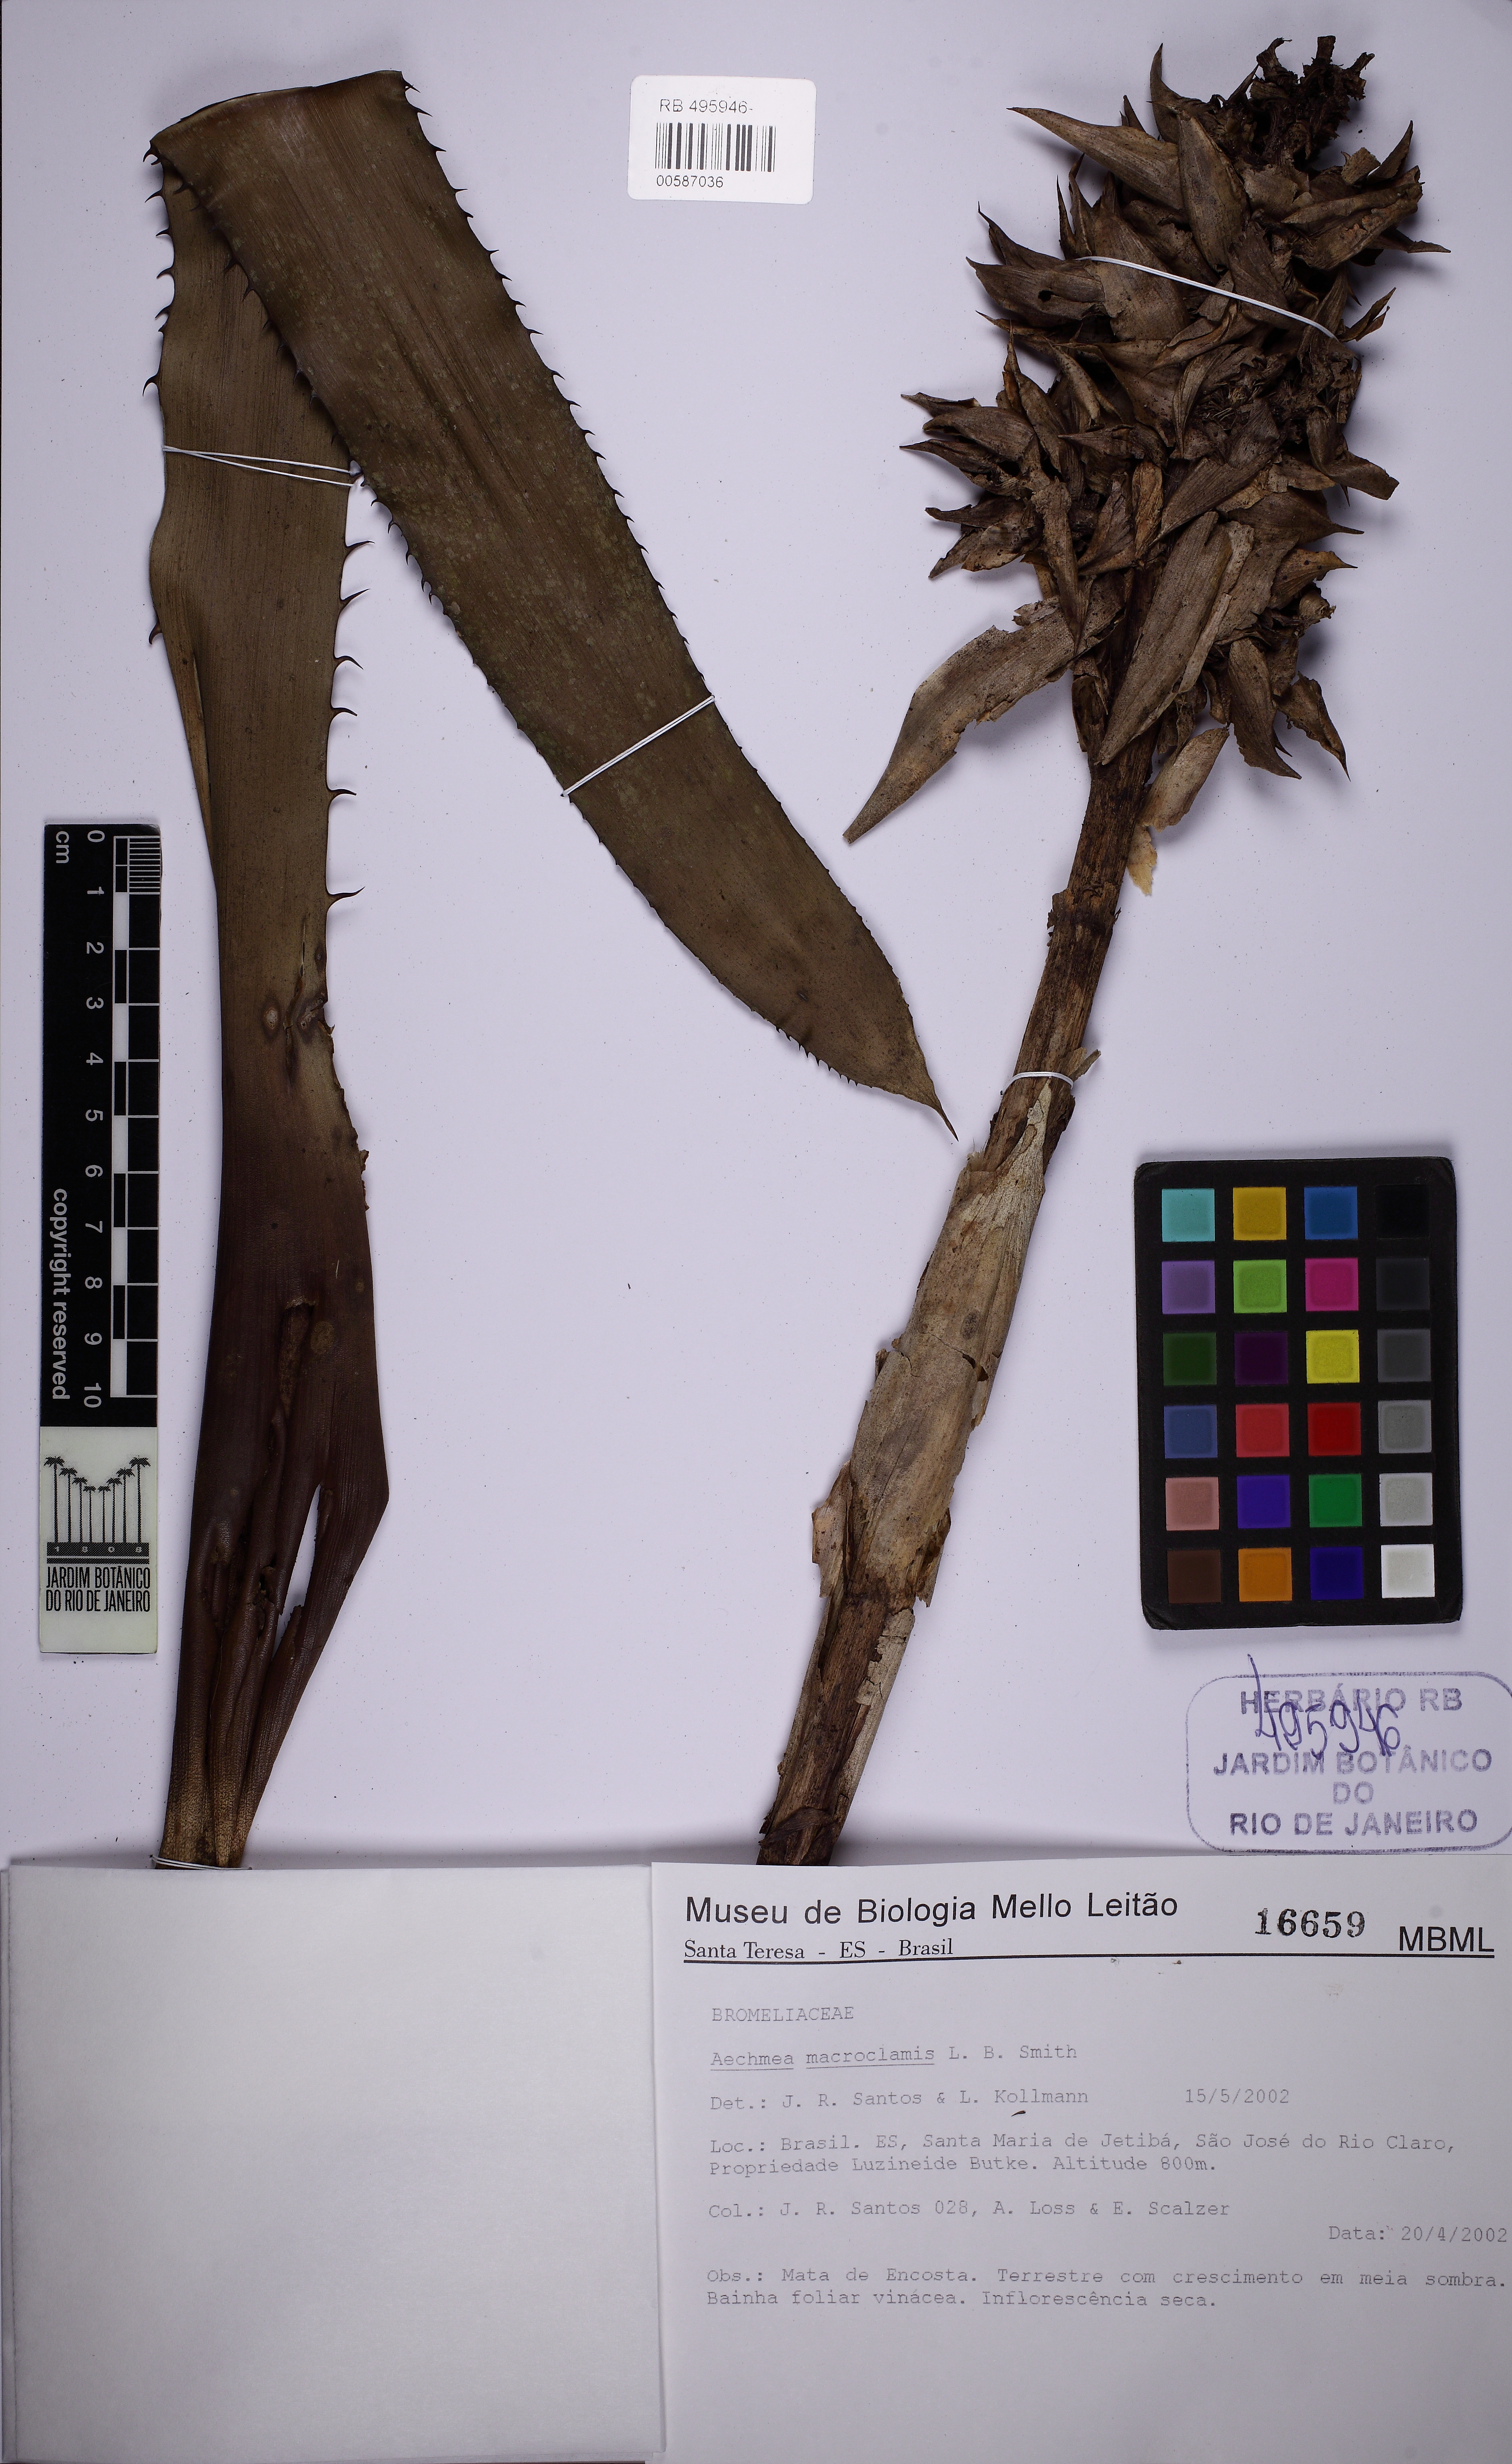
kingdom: Plantae
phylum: Tracheophyta
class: Liliopsida
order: Poales
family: Bromeliaceae
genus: Aechmea
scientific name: Aechmea macrochlamys
